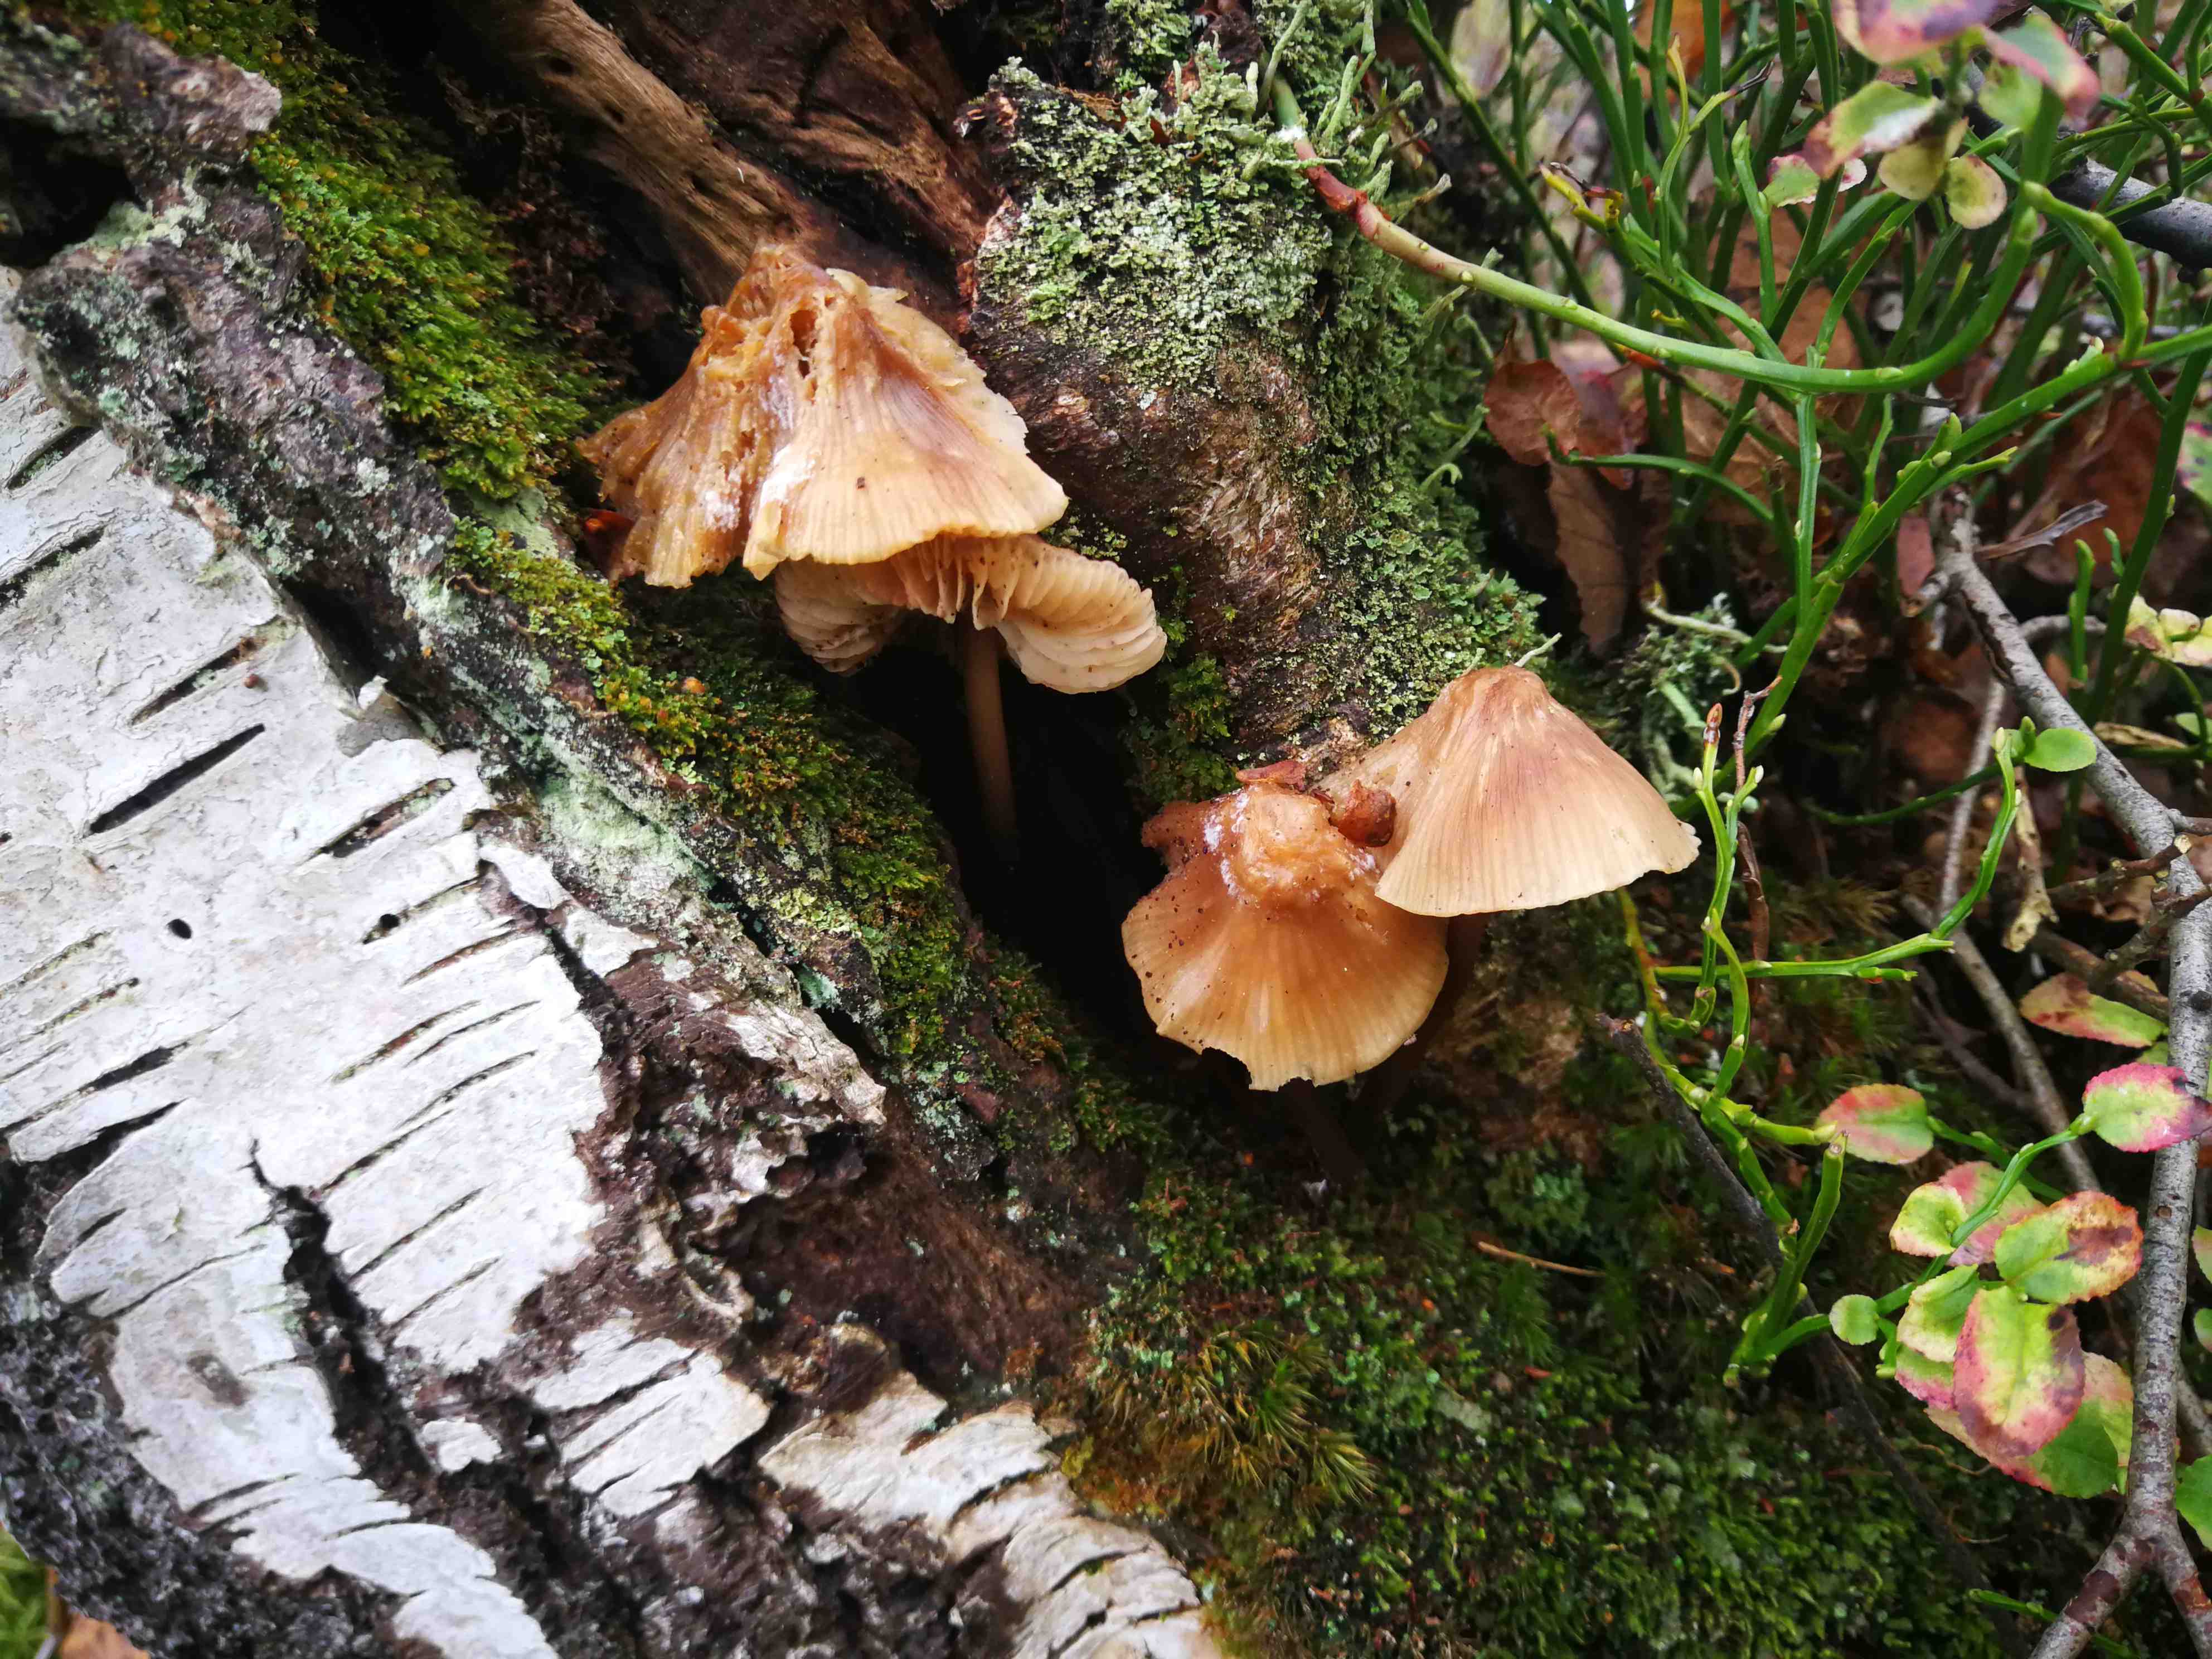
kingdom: Fungi
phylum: Basidiomycota
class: Agaricomycetes
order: Agaricales
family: Mycenaceae
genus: Mycena
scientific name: Mycena galericulata
